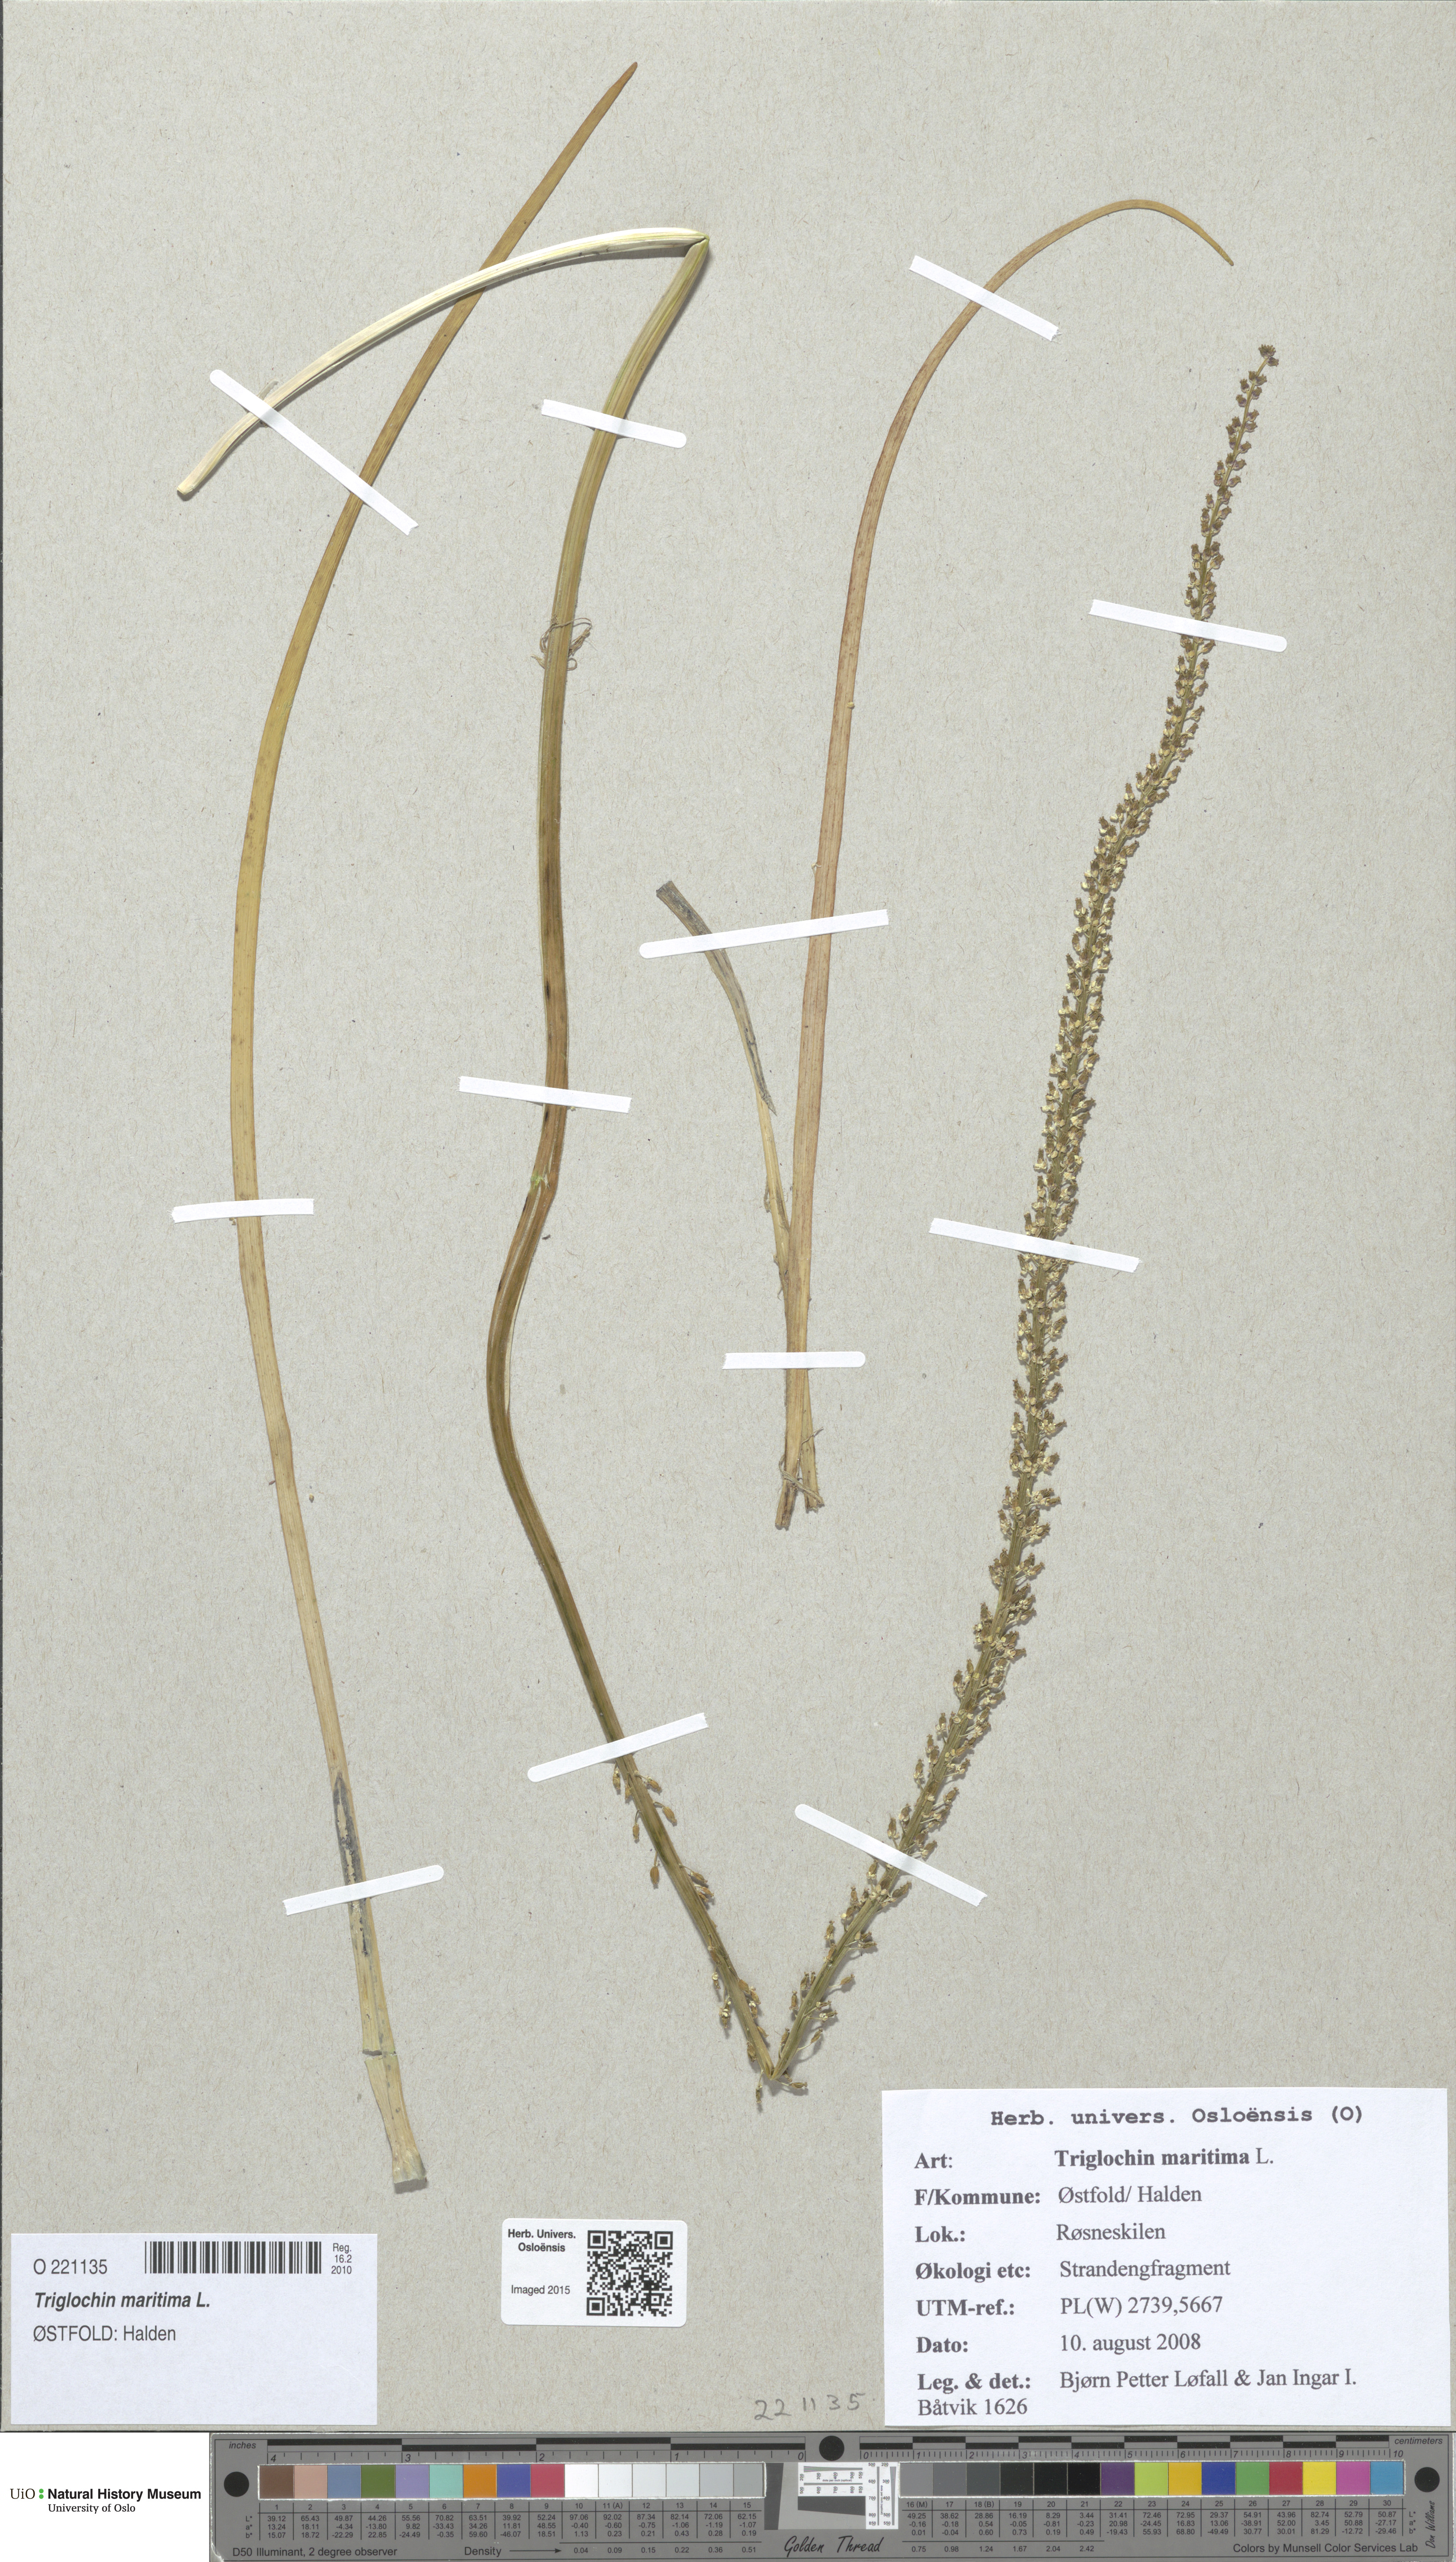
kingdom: Plantae
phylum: Tracheophyta
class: Liliopsida
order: Alismatales
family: Juncaginaceae
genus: Triglochin
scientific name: Triglochin maritima
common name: Sea arrowgrass
